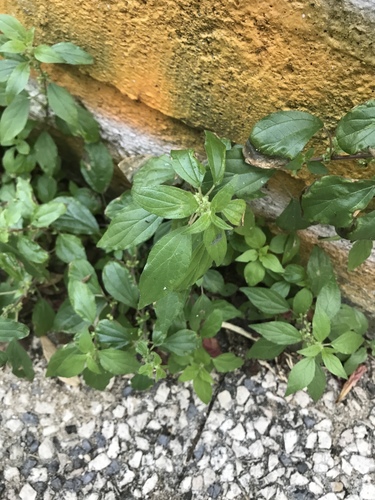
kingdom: Plantae
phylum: Tracheophyta
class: Magnoliopsida
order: Rosales
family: Urticaceae
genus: Parietaria
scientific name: Parietaria judaica
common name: Pellitory-of-the-wall
